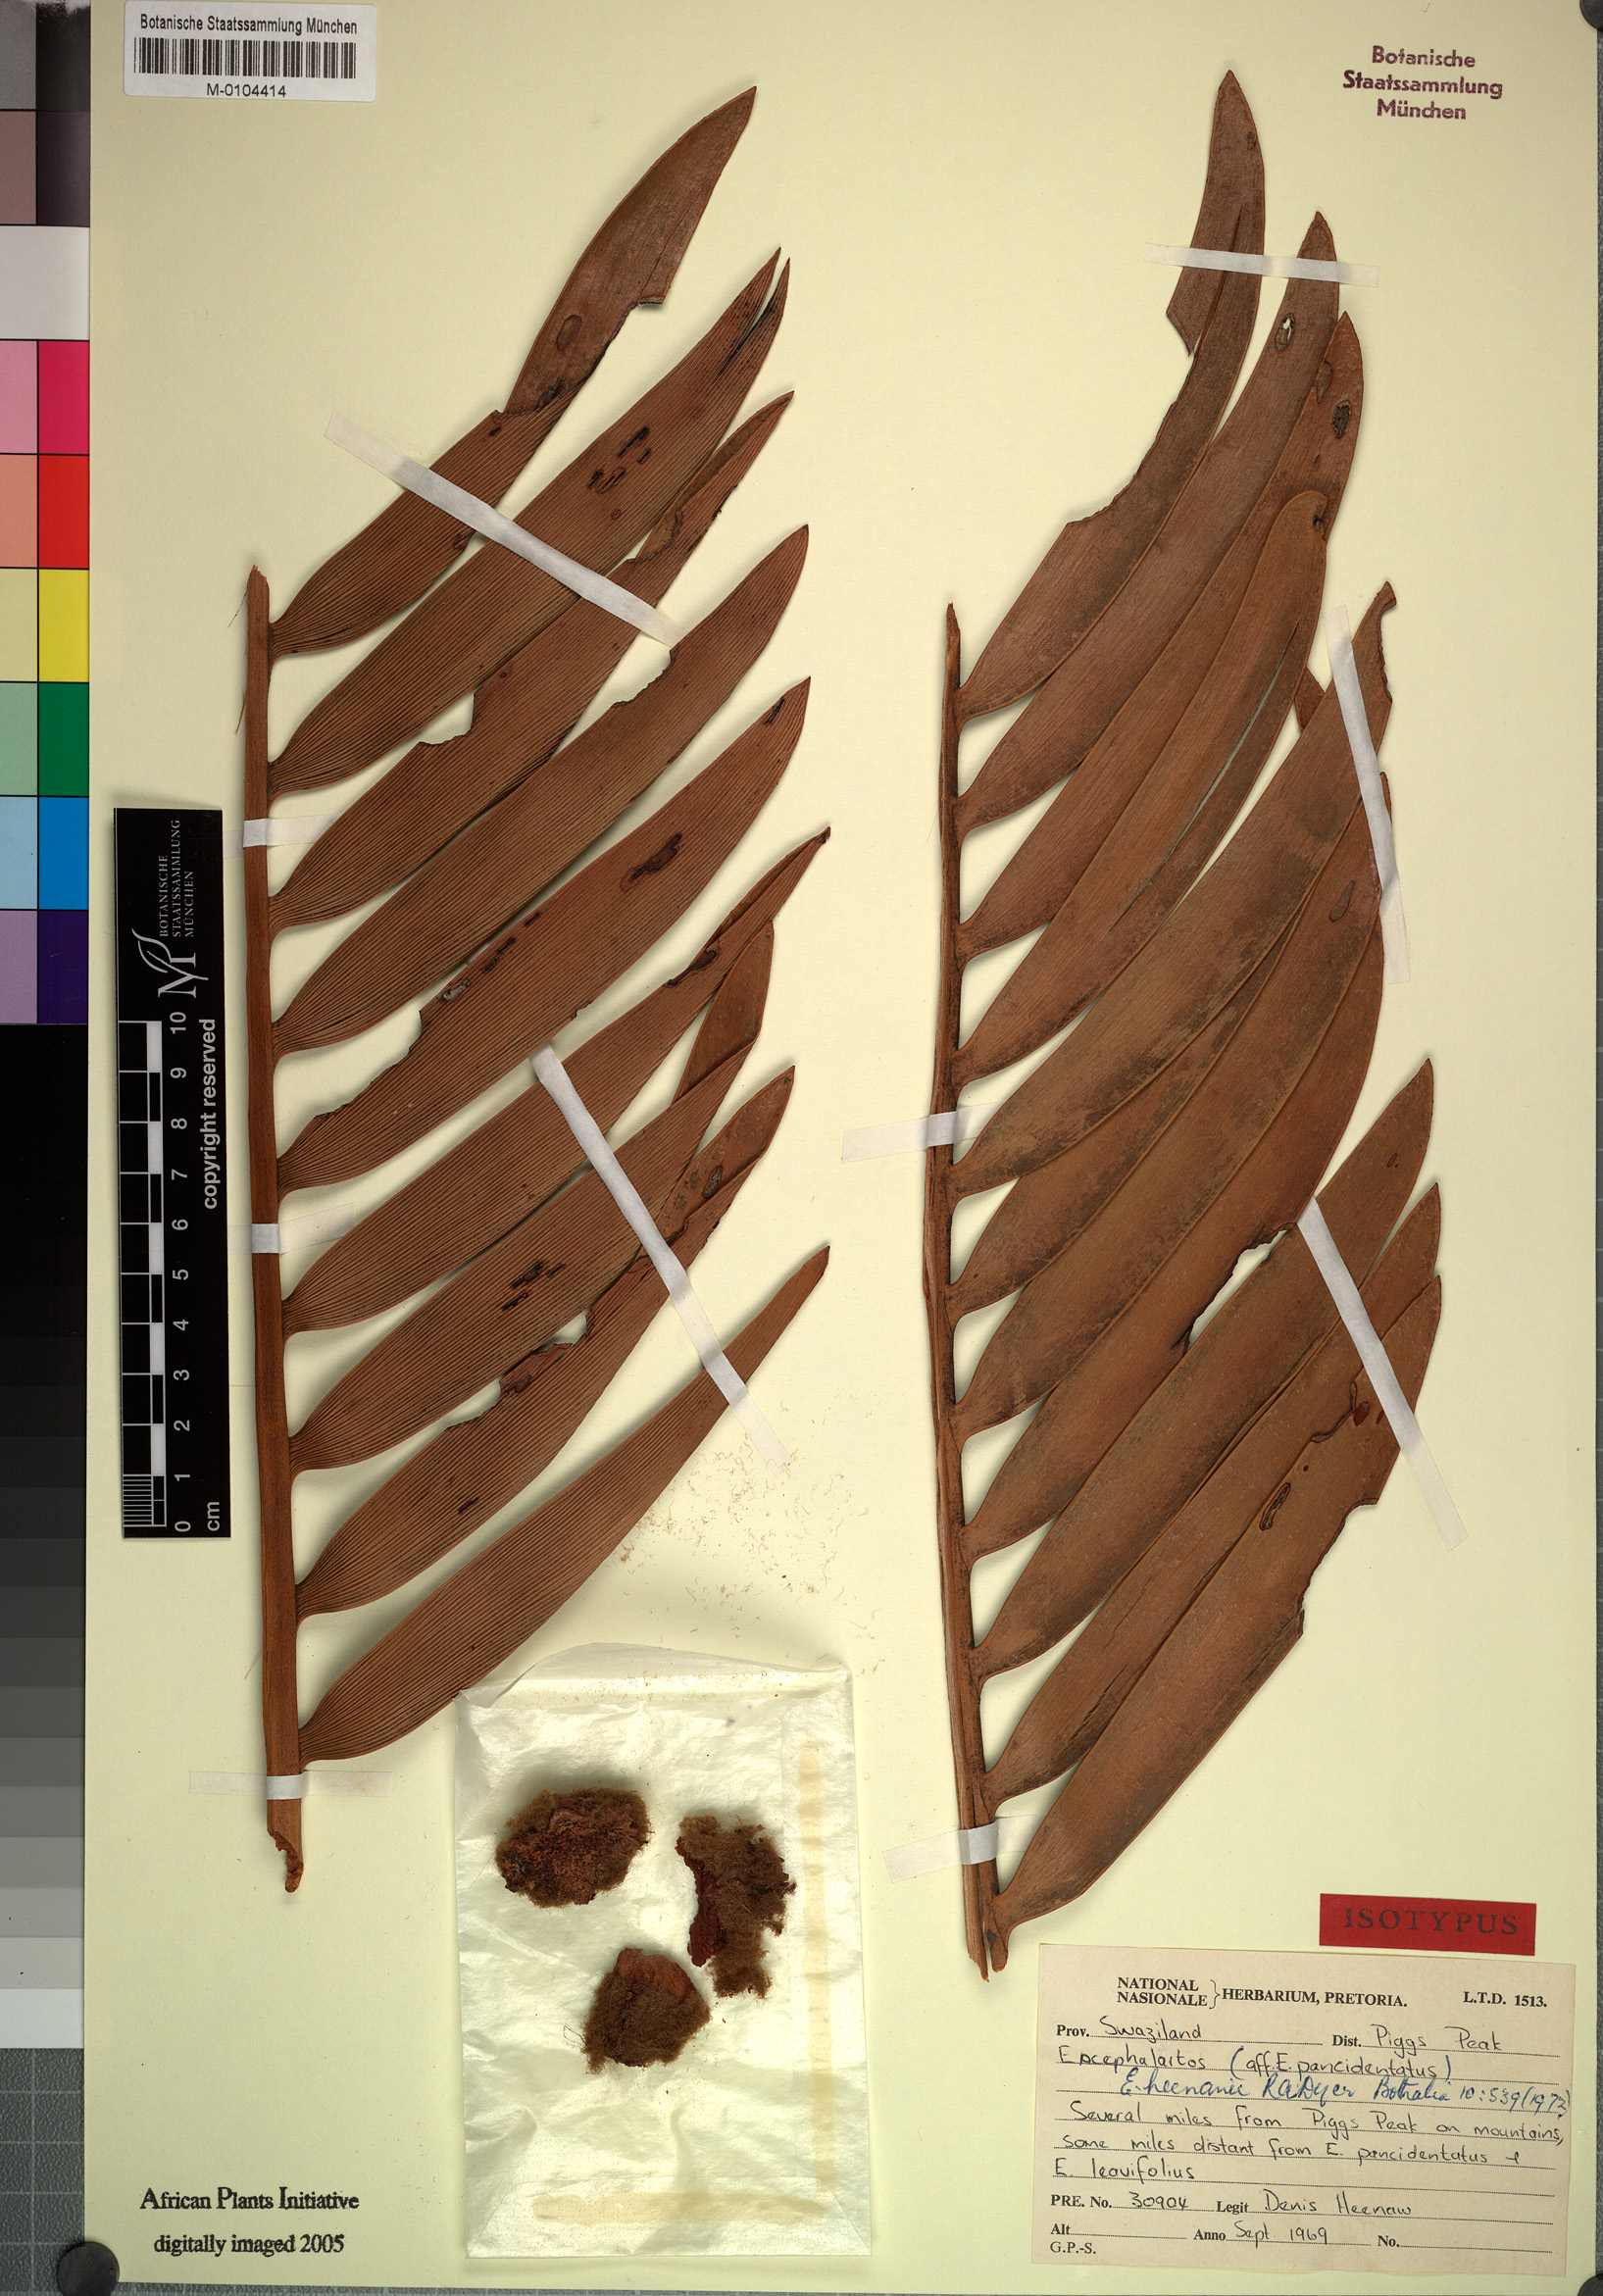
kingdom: Plantae
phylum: Tracheophyta
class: Cycadopsida
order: Cycadales
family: Zamiaceae
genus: Encephalartos
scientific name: Encephalartos heenanii
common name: Heenan's cycad
